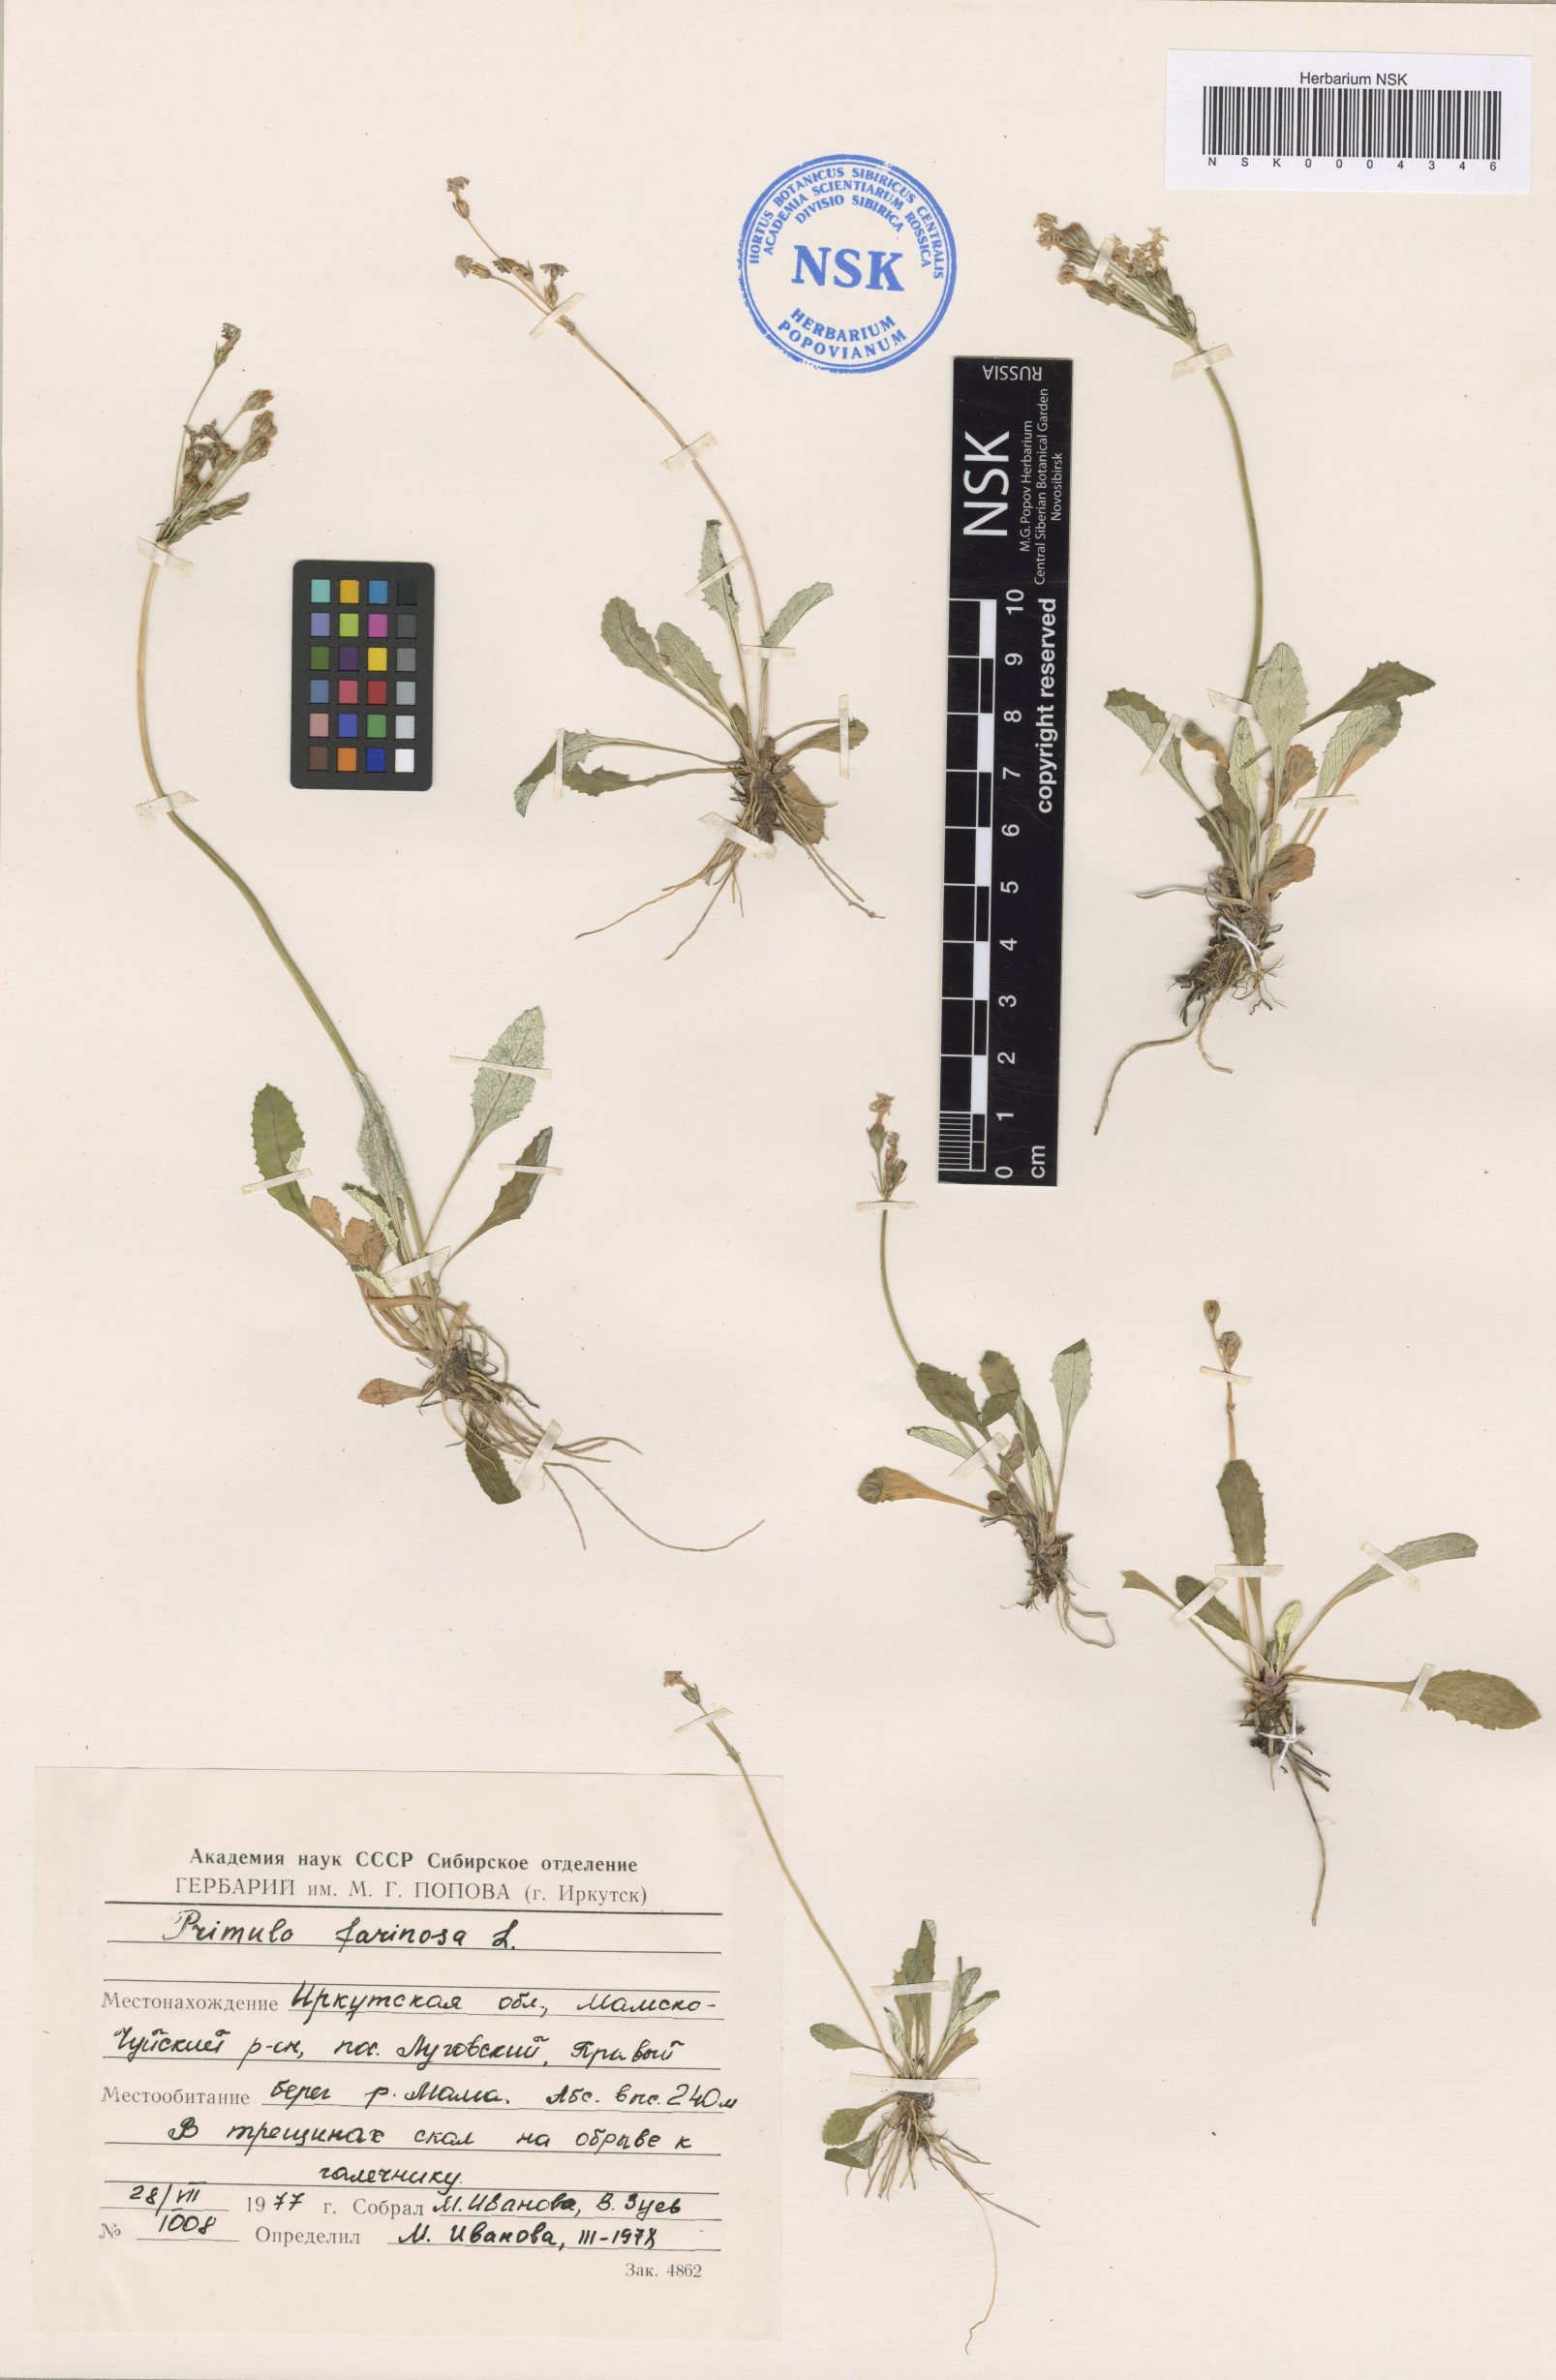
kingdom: Plantae
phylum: Tracheophyta
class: Magnoliopsida
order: Ericales
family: Primulaceae
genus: Primula
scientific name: Primula farinosa
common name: Bird's-eye primrose
